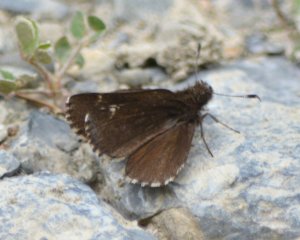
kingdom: Animalia
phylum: Arthropoda
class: Insecta
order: Lepidoptera
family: Hesperiidae
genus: Mastor
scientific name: Mastor vialis
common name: Common Roadside-Skipper
